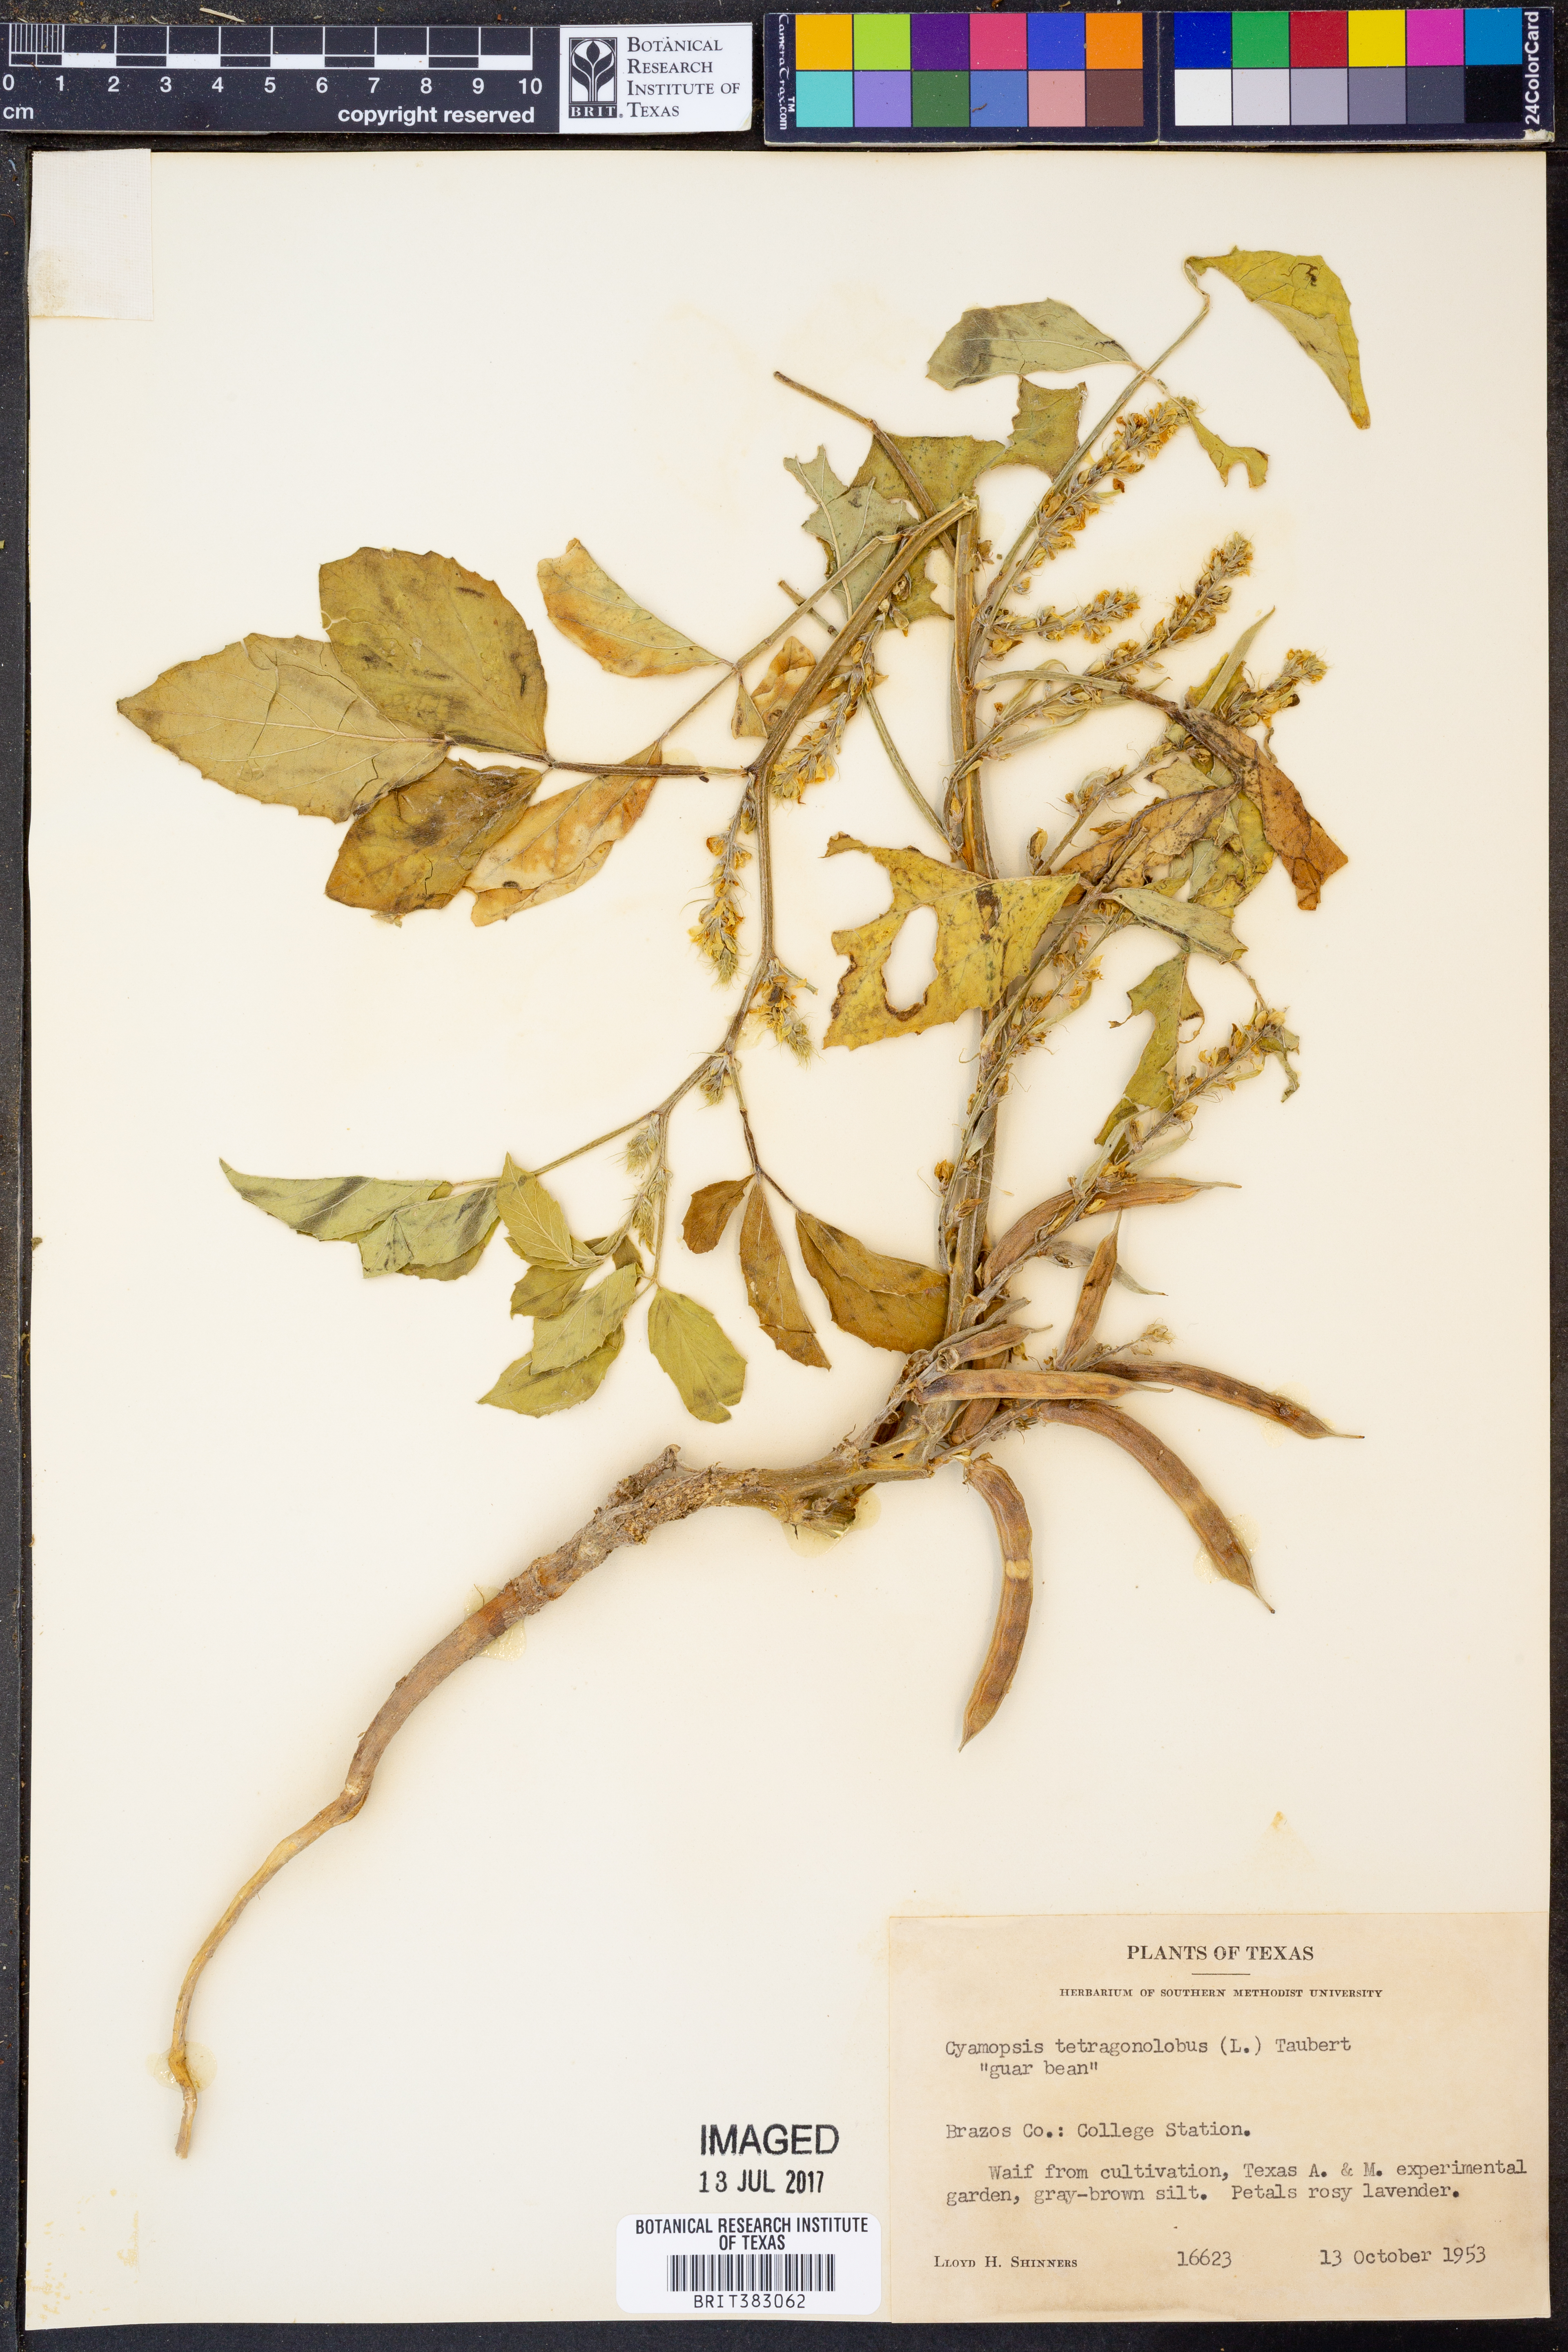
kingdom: Plantae
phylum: Tracheophyta
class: Magnoliopsida
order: Fabales
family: Fabaceae
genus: Cyamopsis
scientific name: Cyamopsis tetragonoloba
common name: Cluster-bean
